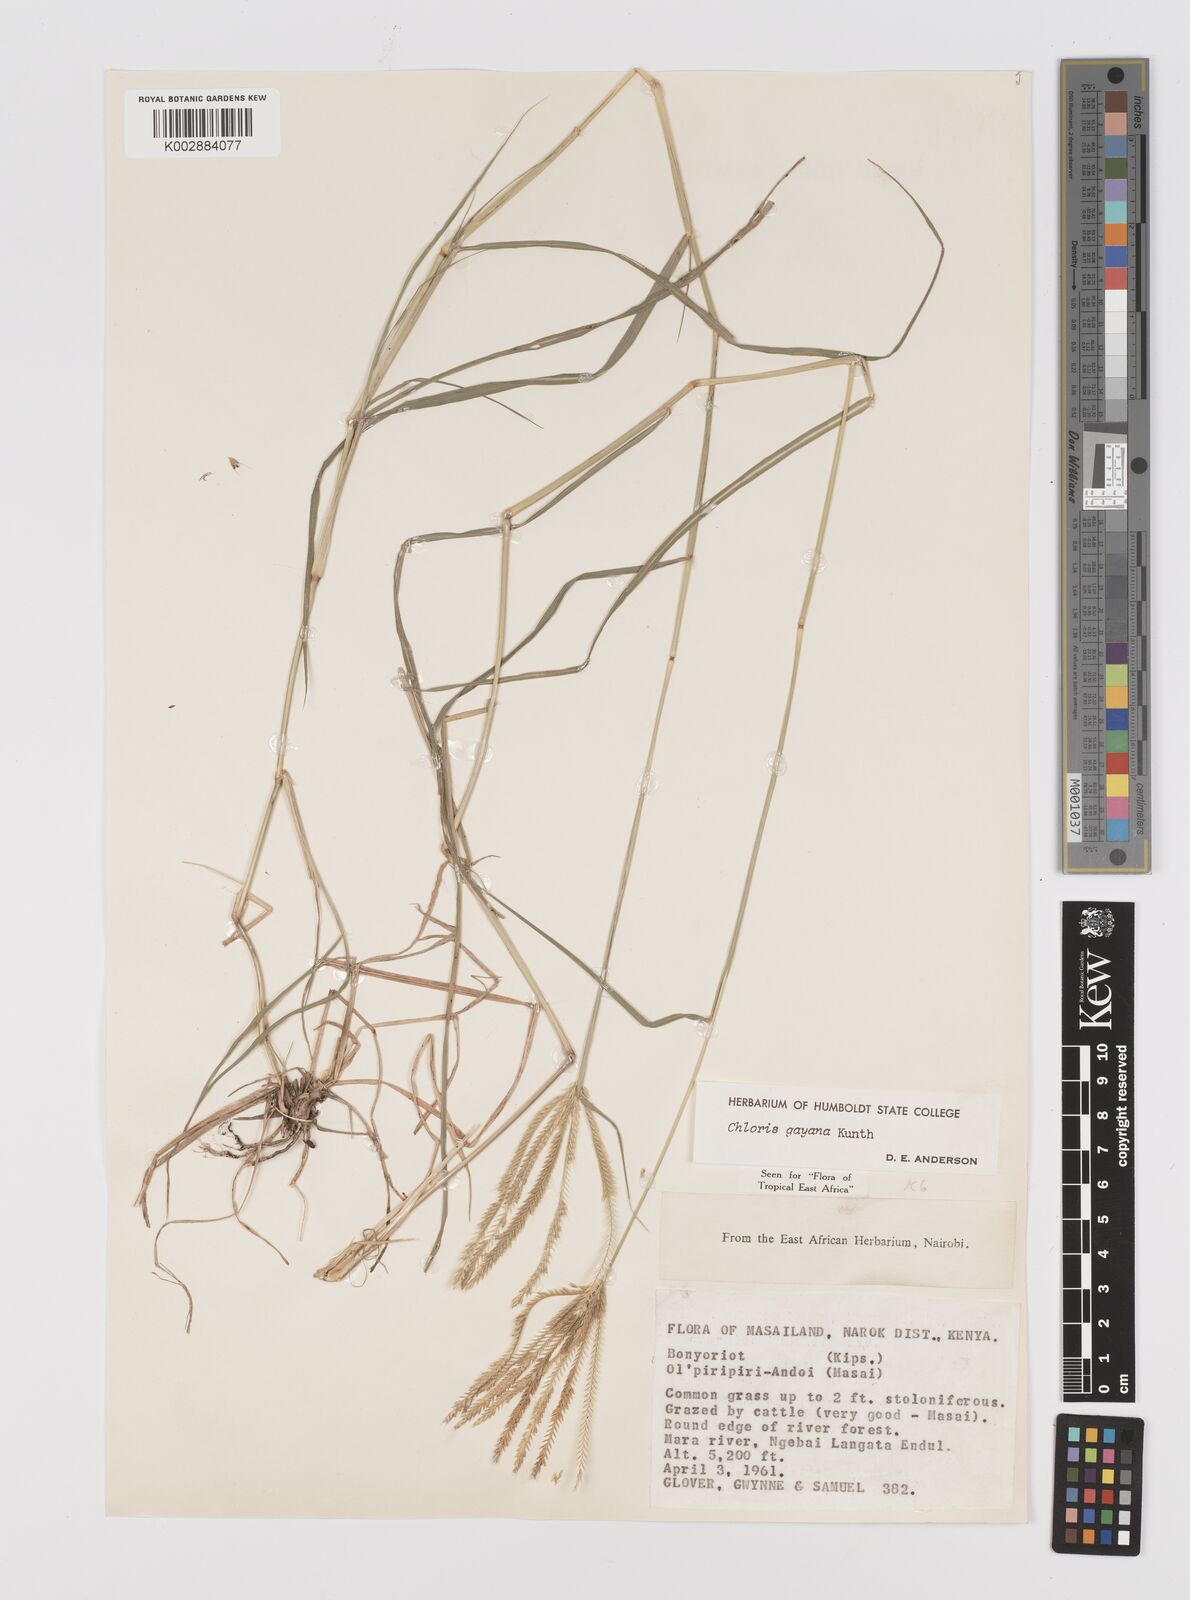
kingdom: Plantae
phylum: Tracheophyta
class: Liliopsida
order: Poales
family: Poaceae
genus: Chloris
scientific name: Chloris gayana
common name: Rhodes grass
